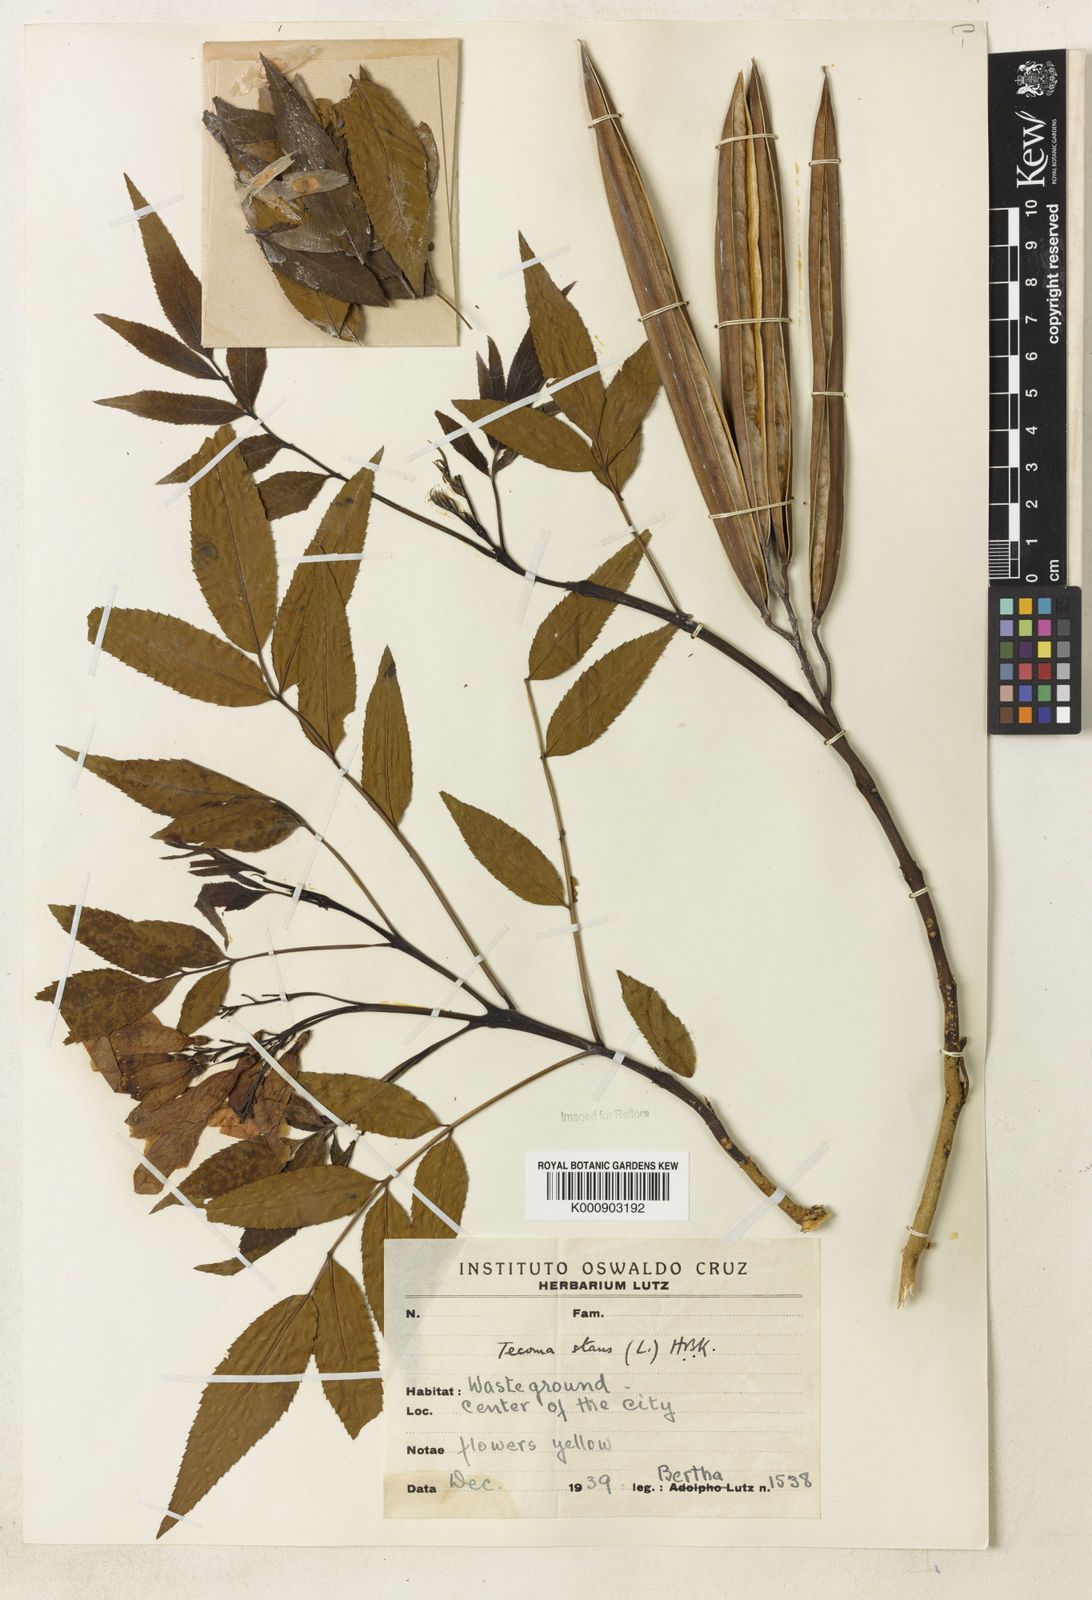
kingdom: Plantae
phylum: Tracheophyta
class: Magnoliopsida
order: Lamiales
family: Bignoniaceae
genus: Tecoma
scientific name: Tecoma stans
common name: Yellow trumpetbush
